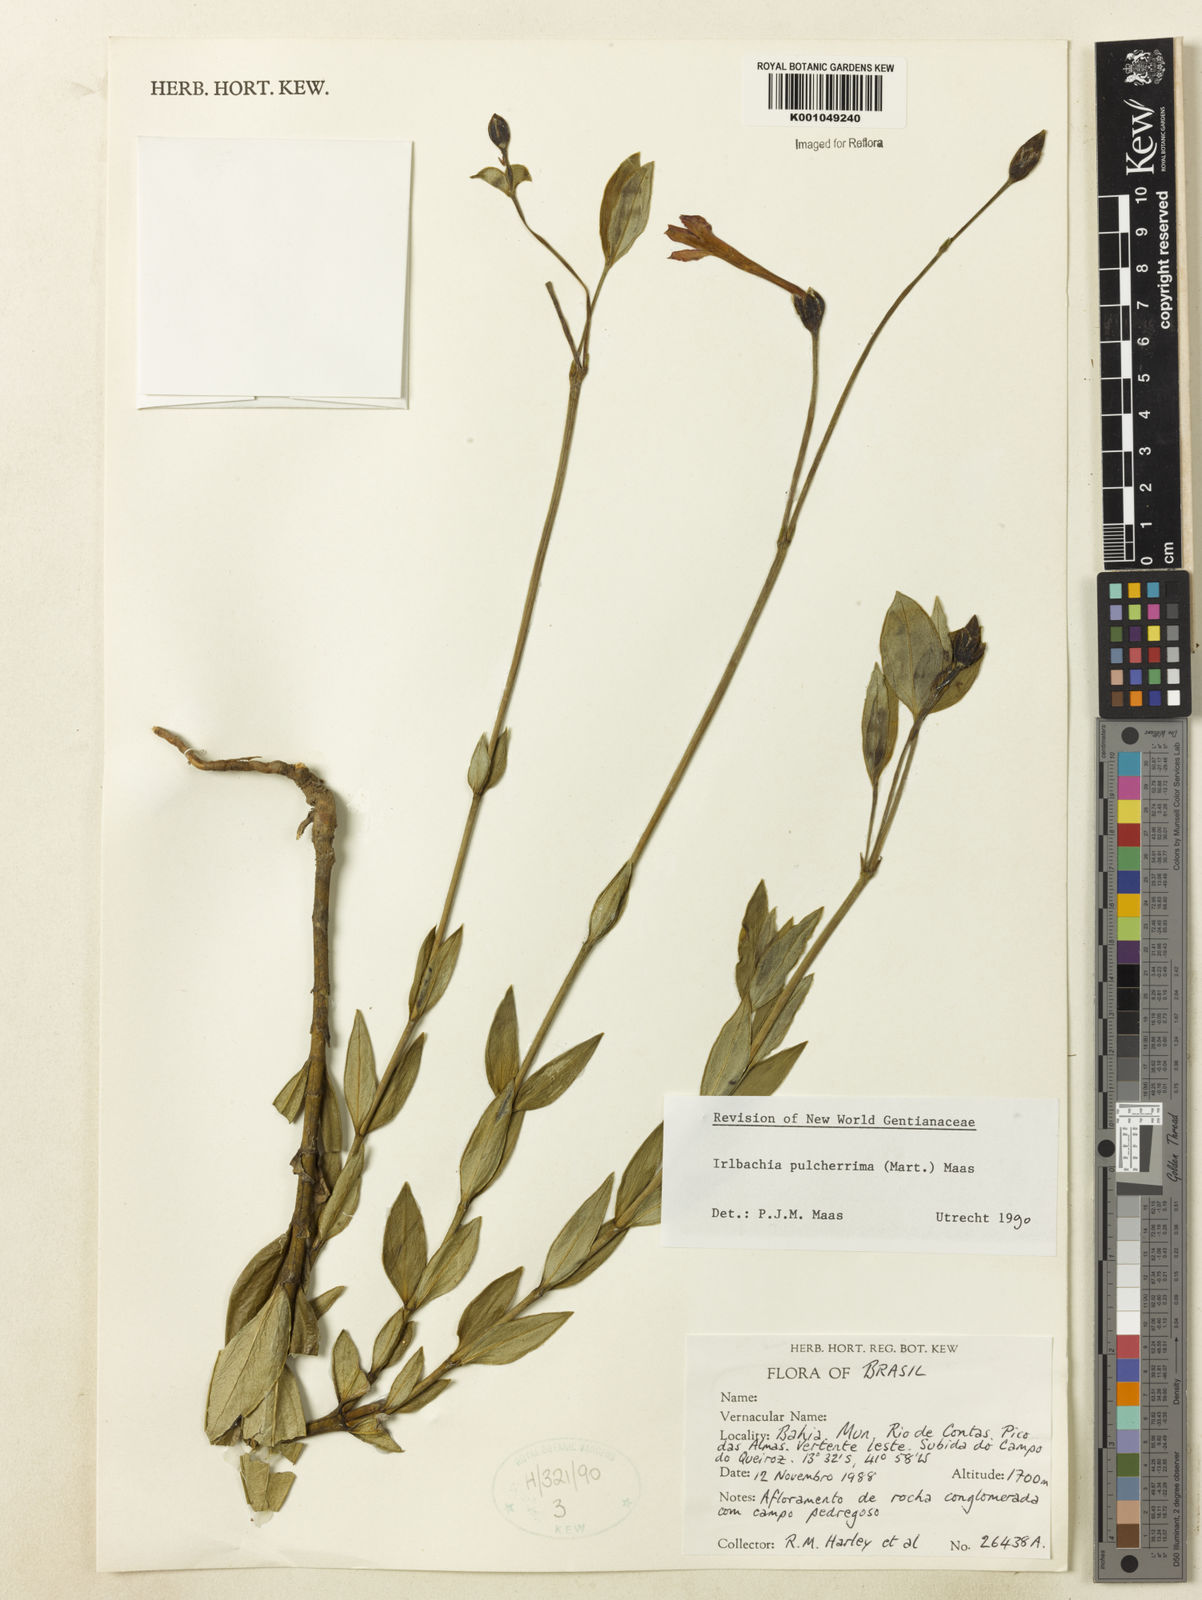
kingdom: Plantae
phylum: Tracheophyta
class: Magnoliopsida
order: Gentianales
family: Gentianaceae
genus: Calolisianthus
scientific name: Calolisianthus pulcherrimus
